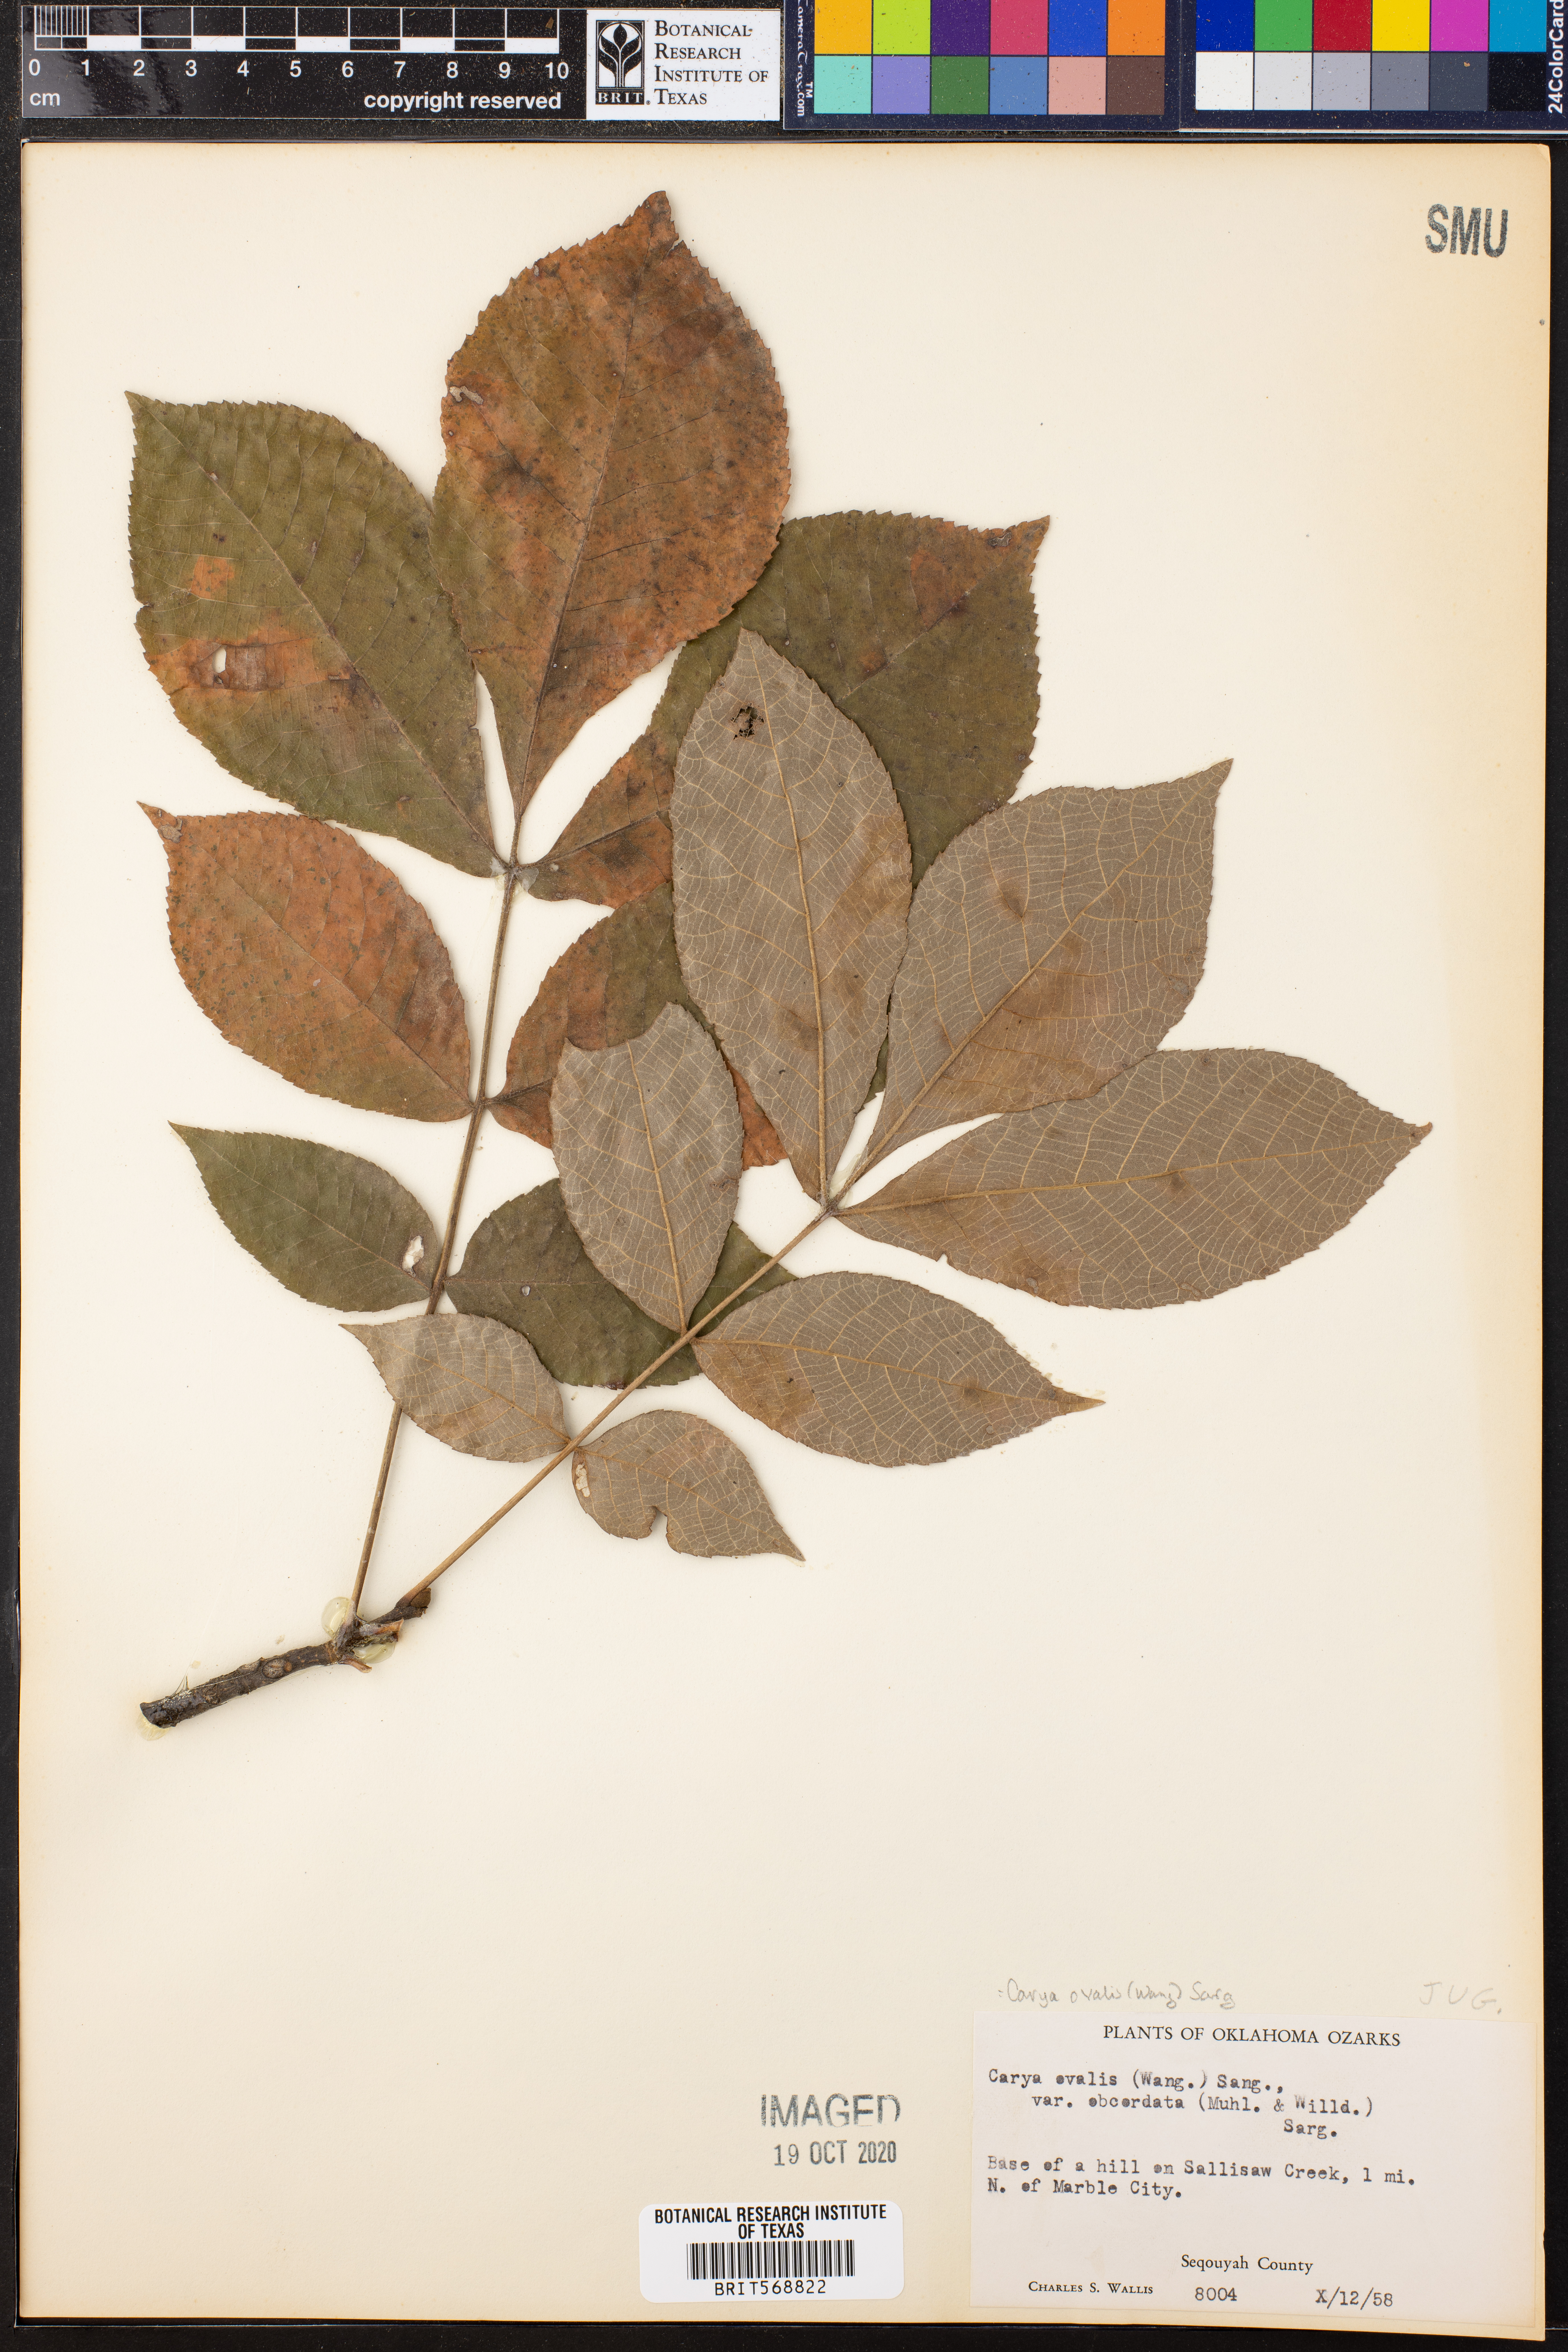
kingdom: Plantae
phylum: Tracheophyta
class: Magnoliopsida
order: Fagales
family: Juglandaceae
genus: Carya
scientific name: Carya ovalis
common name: False shagbark
